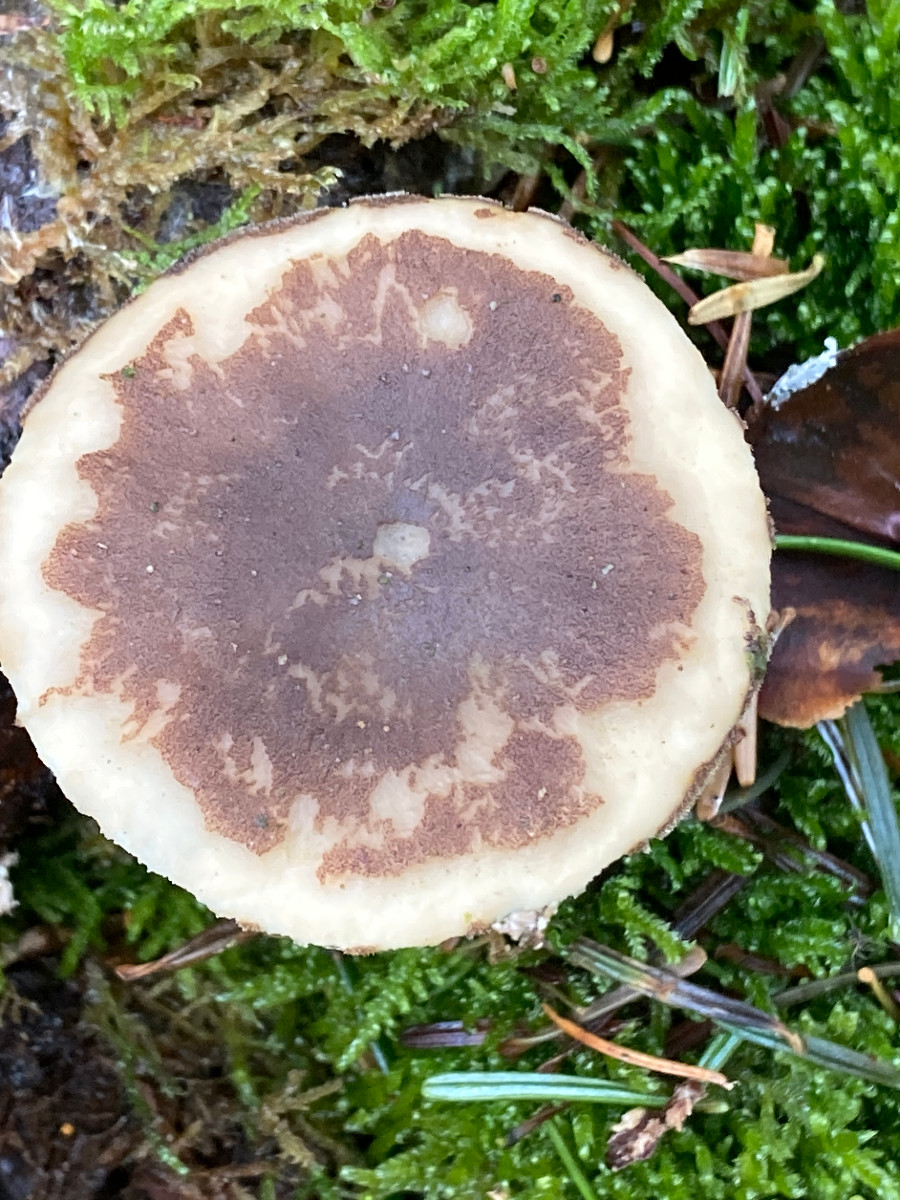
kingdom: Fungi
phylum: Basidiomycota
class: Agaricomycetes
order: Polyporales
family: Polyporaceae
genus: Lentinus
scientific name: Lentinus brumalis
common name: vinter-stilkporesvamp
